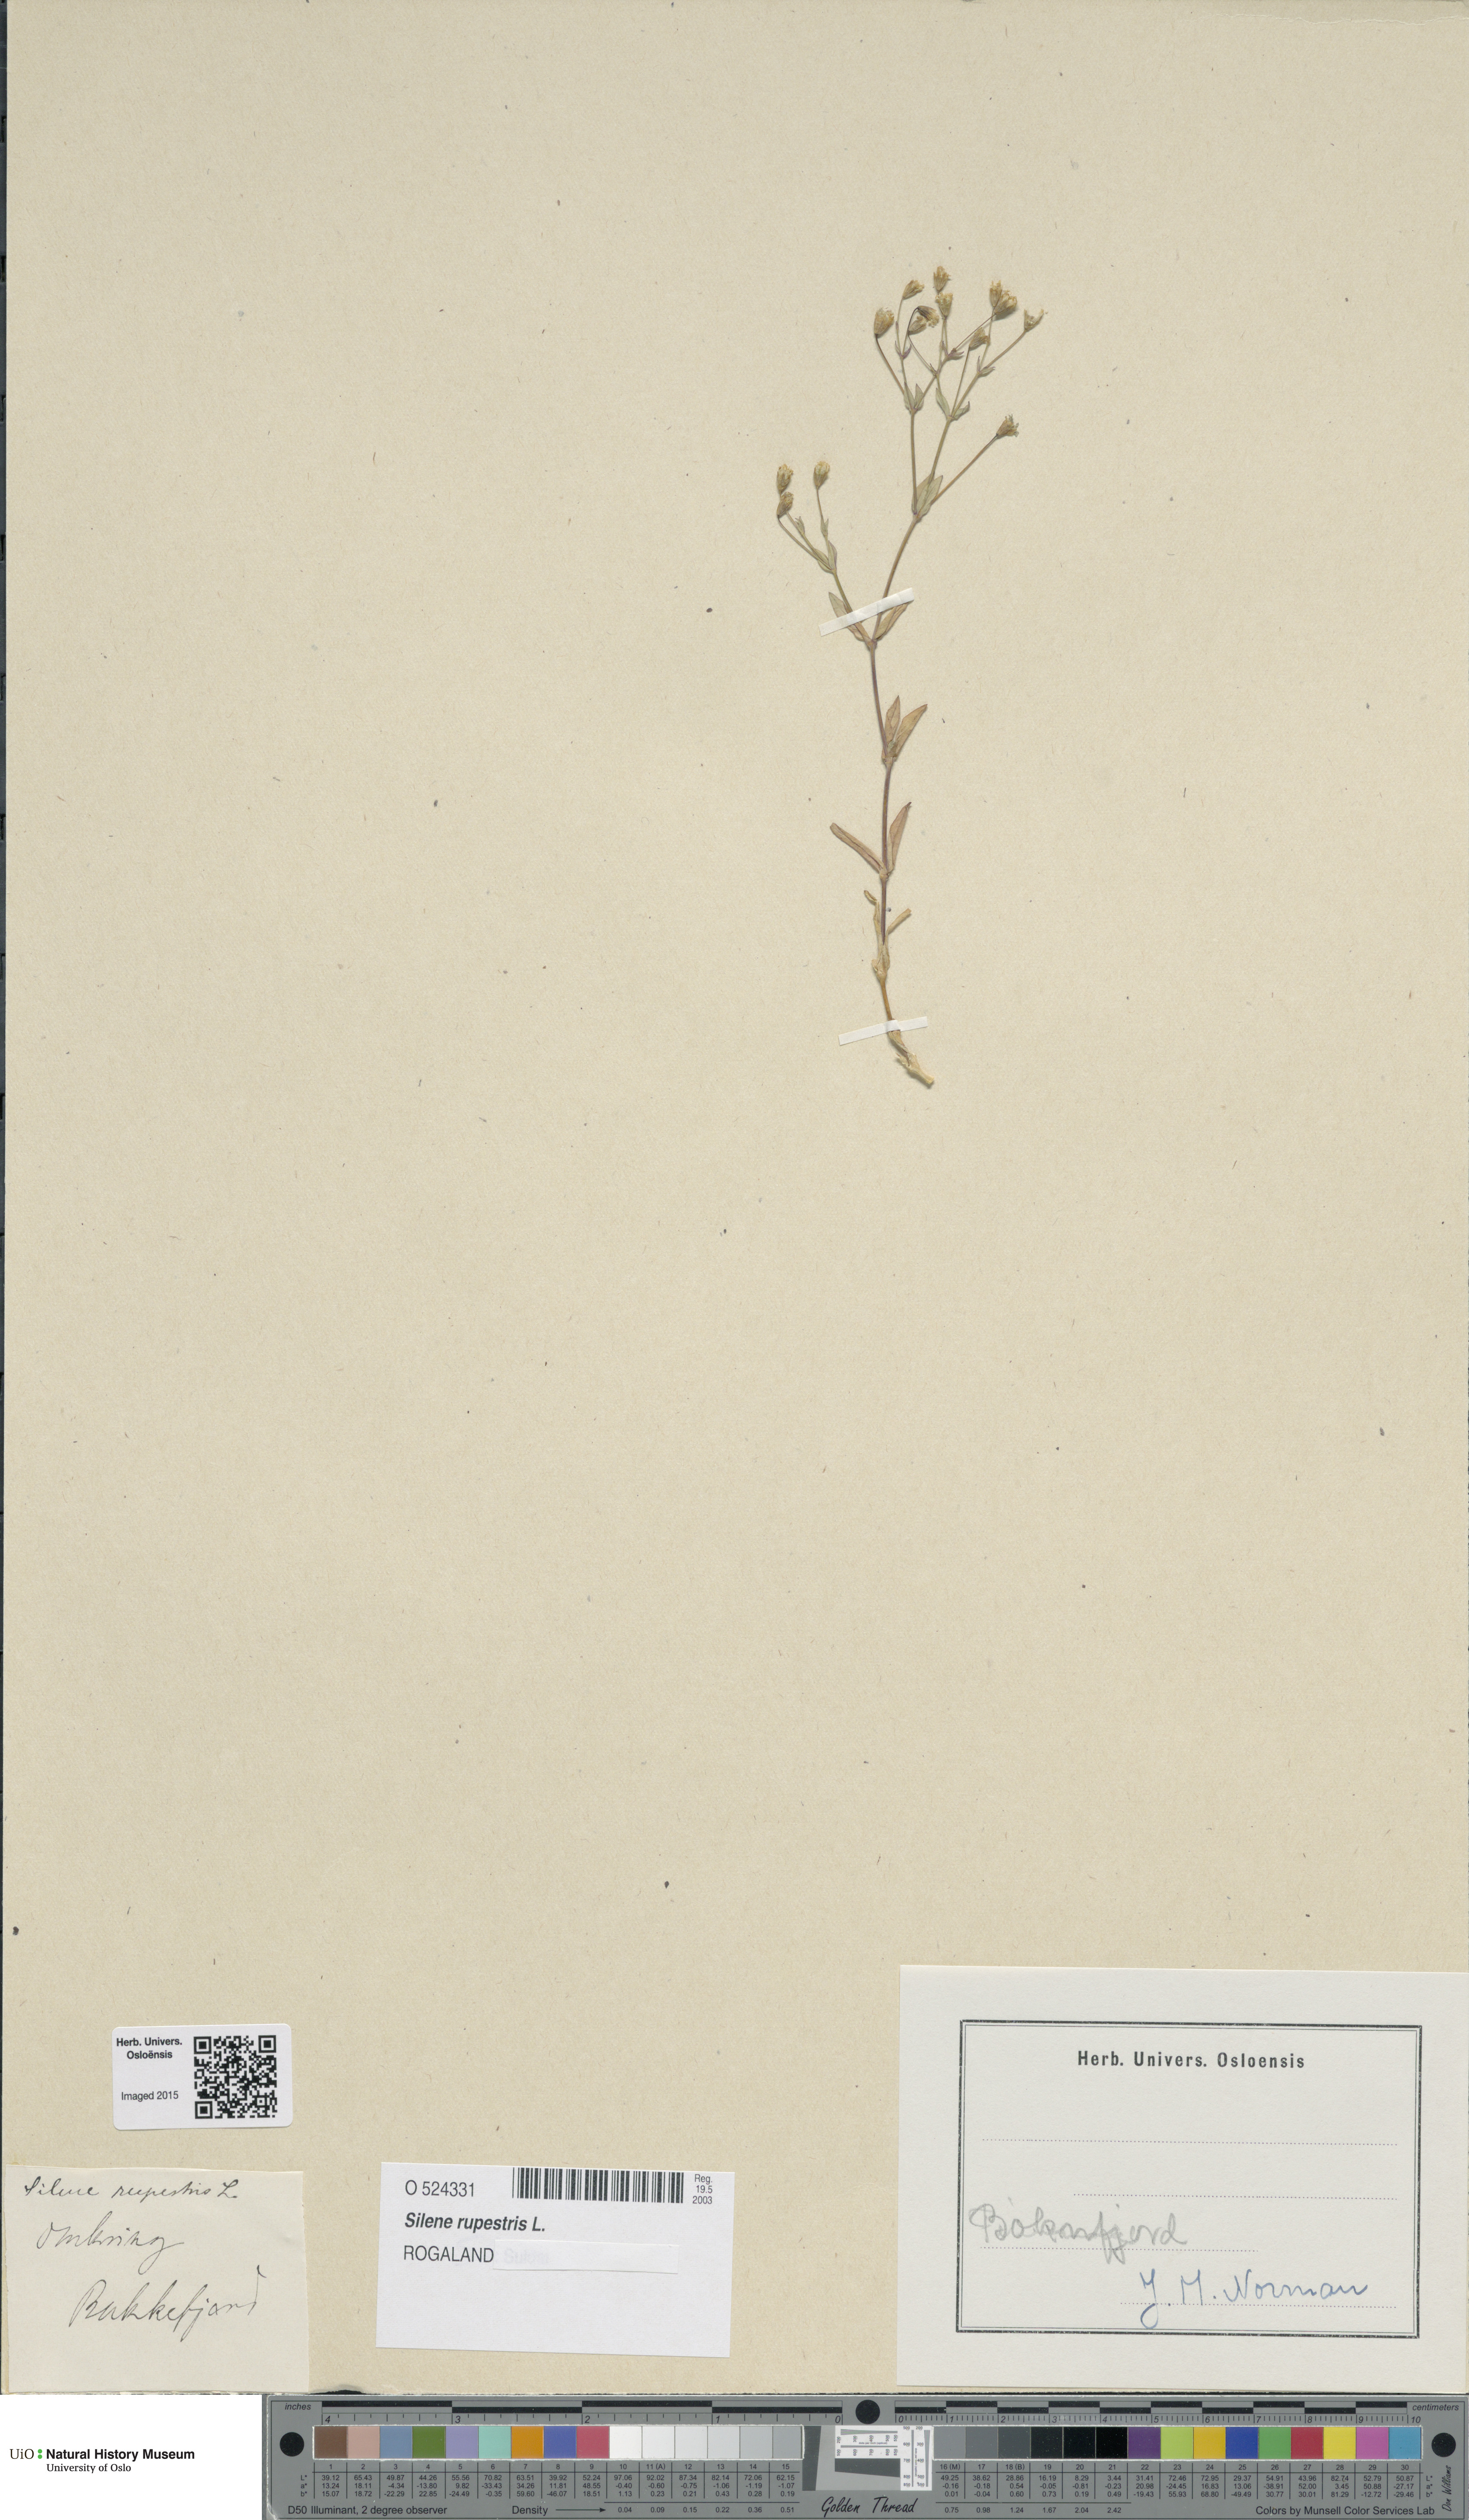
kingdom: Plantae
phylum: Tracheophyta
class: Magnoliopsida
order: Caryophyllales
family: Caryophyllaceae
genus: Atocion
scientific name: Atocion rupestre
